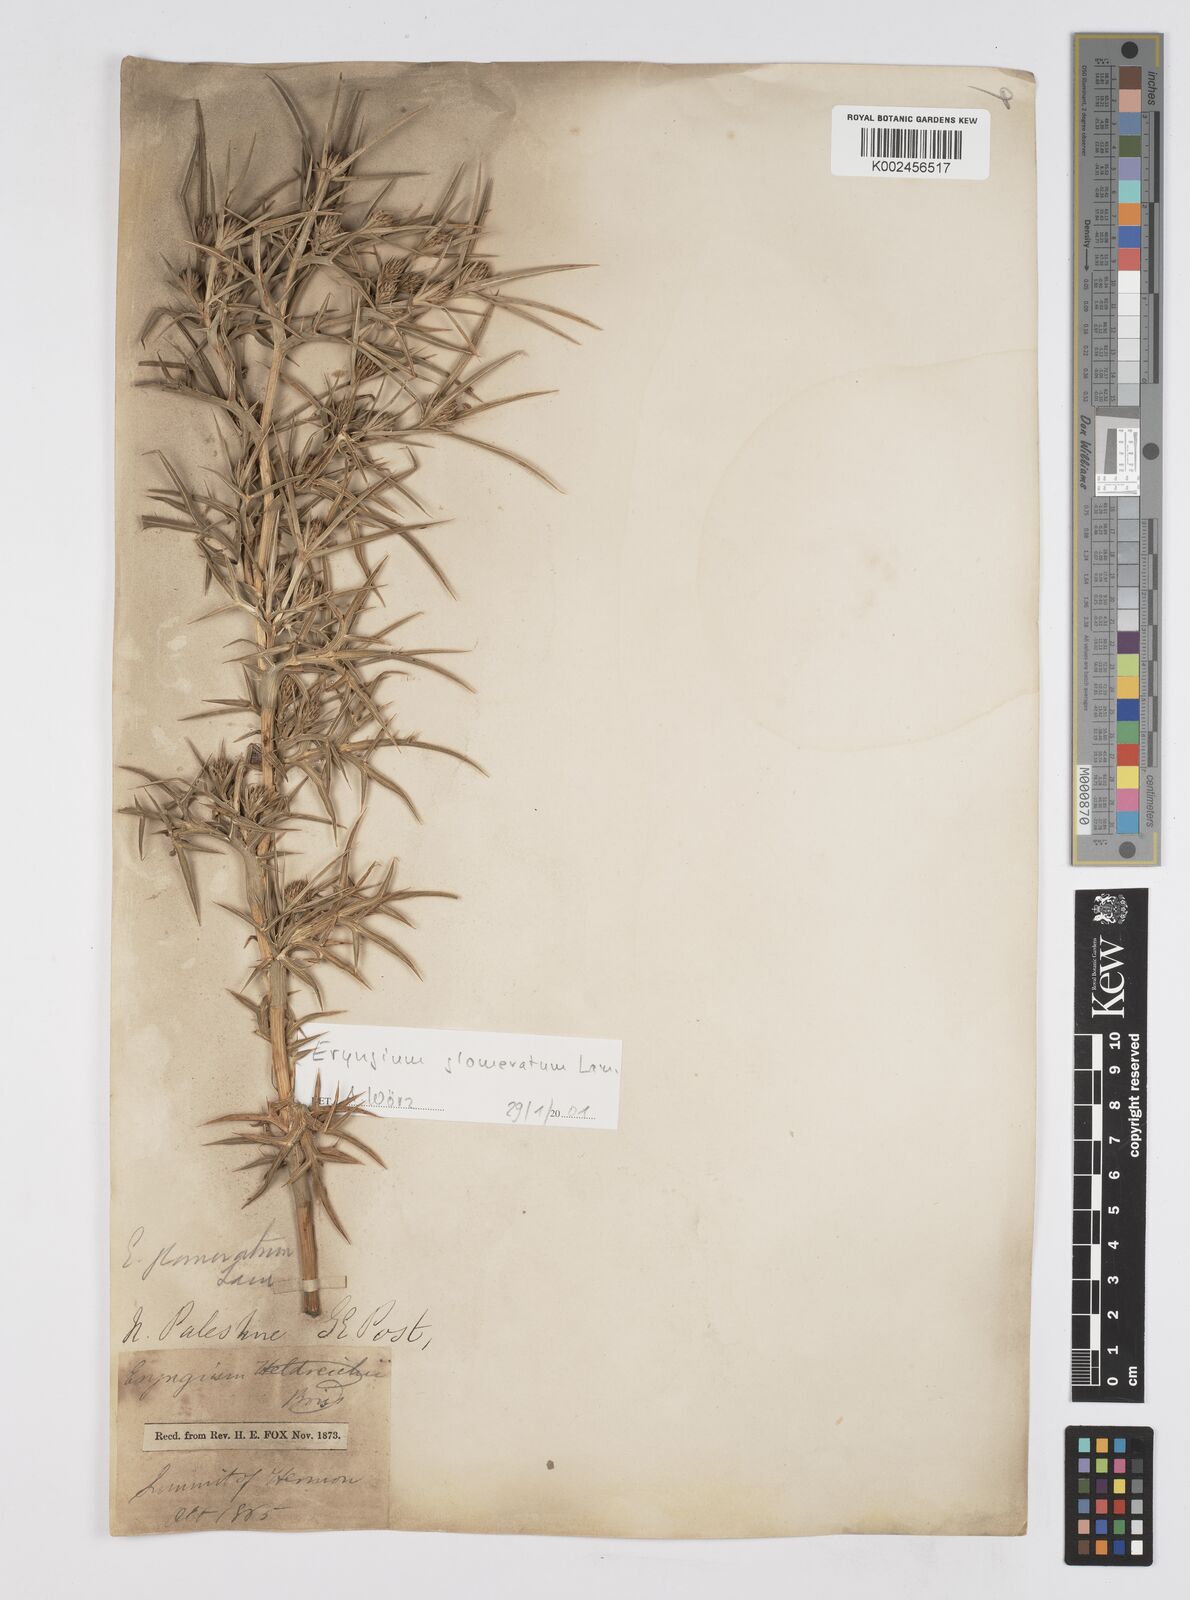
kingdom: Plantae
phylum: Tracheophyta
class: Magnoliopsida
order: Apiales
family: Apiaceae
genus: Eryngium
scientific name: Eryngium glomeratum
